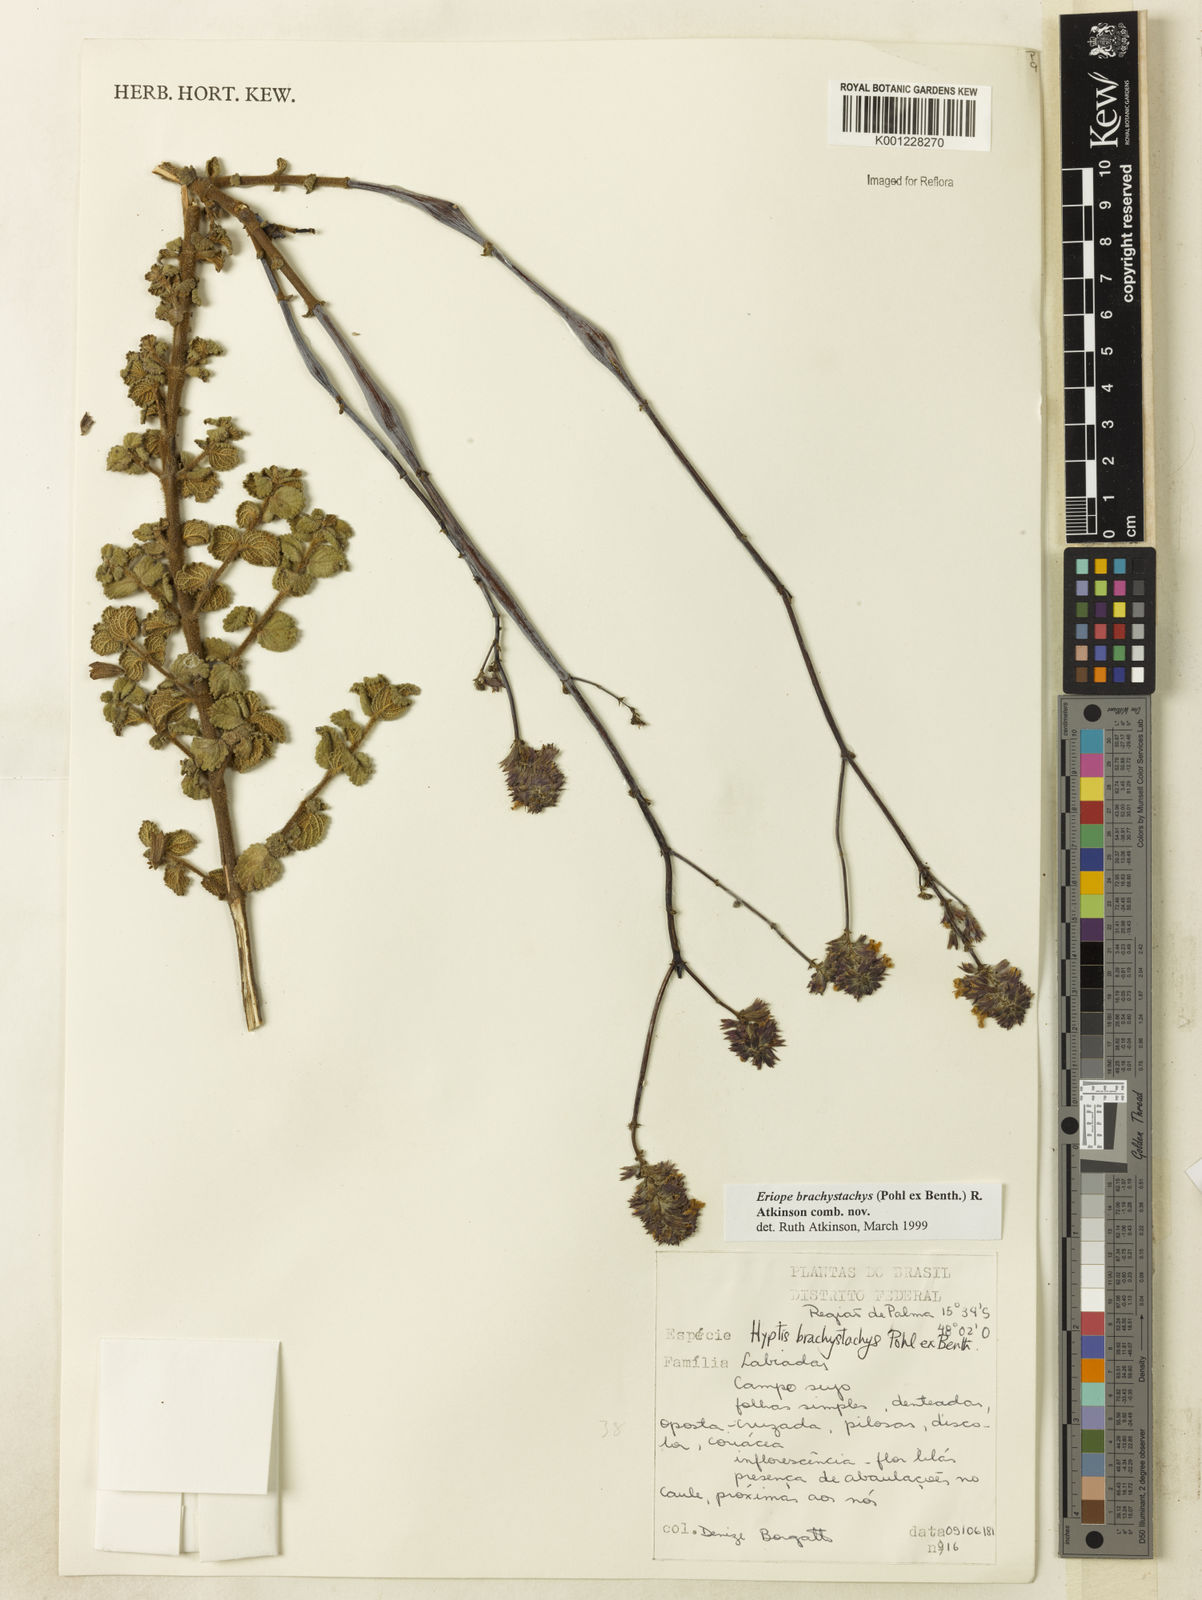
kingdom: Plantae
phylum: Tracheophyta
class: Magnoliopsida
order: Lamiales
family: Lamiaceae
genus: Hypenia
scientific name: Hypenia brachystachys
